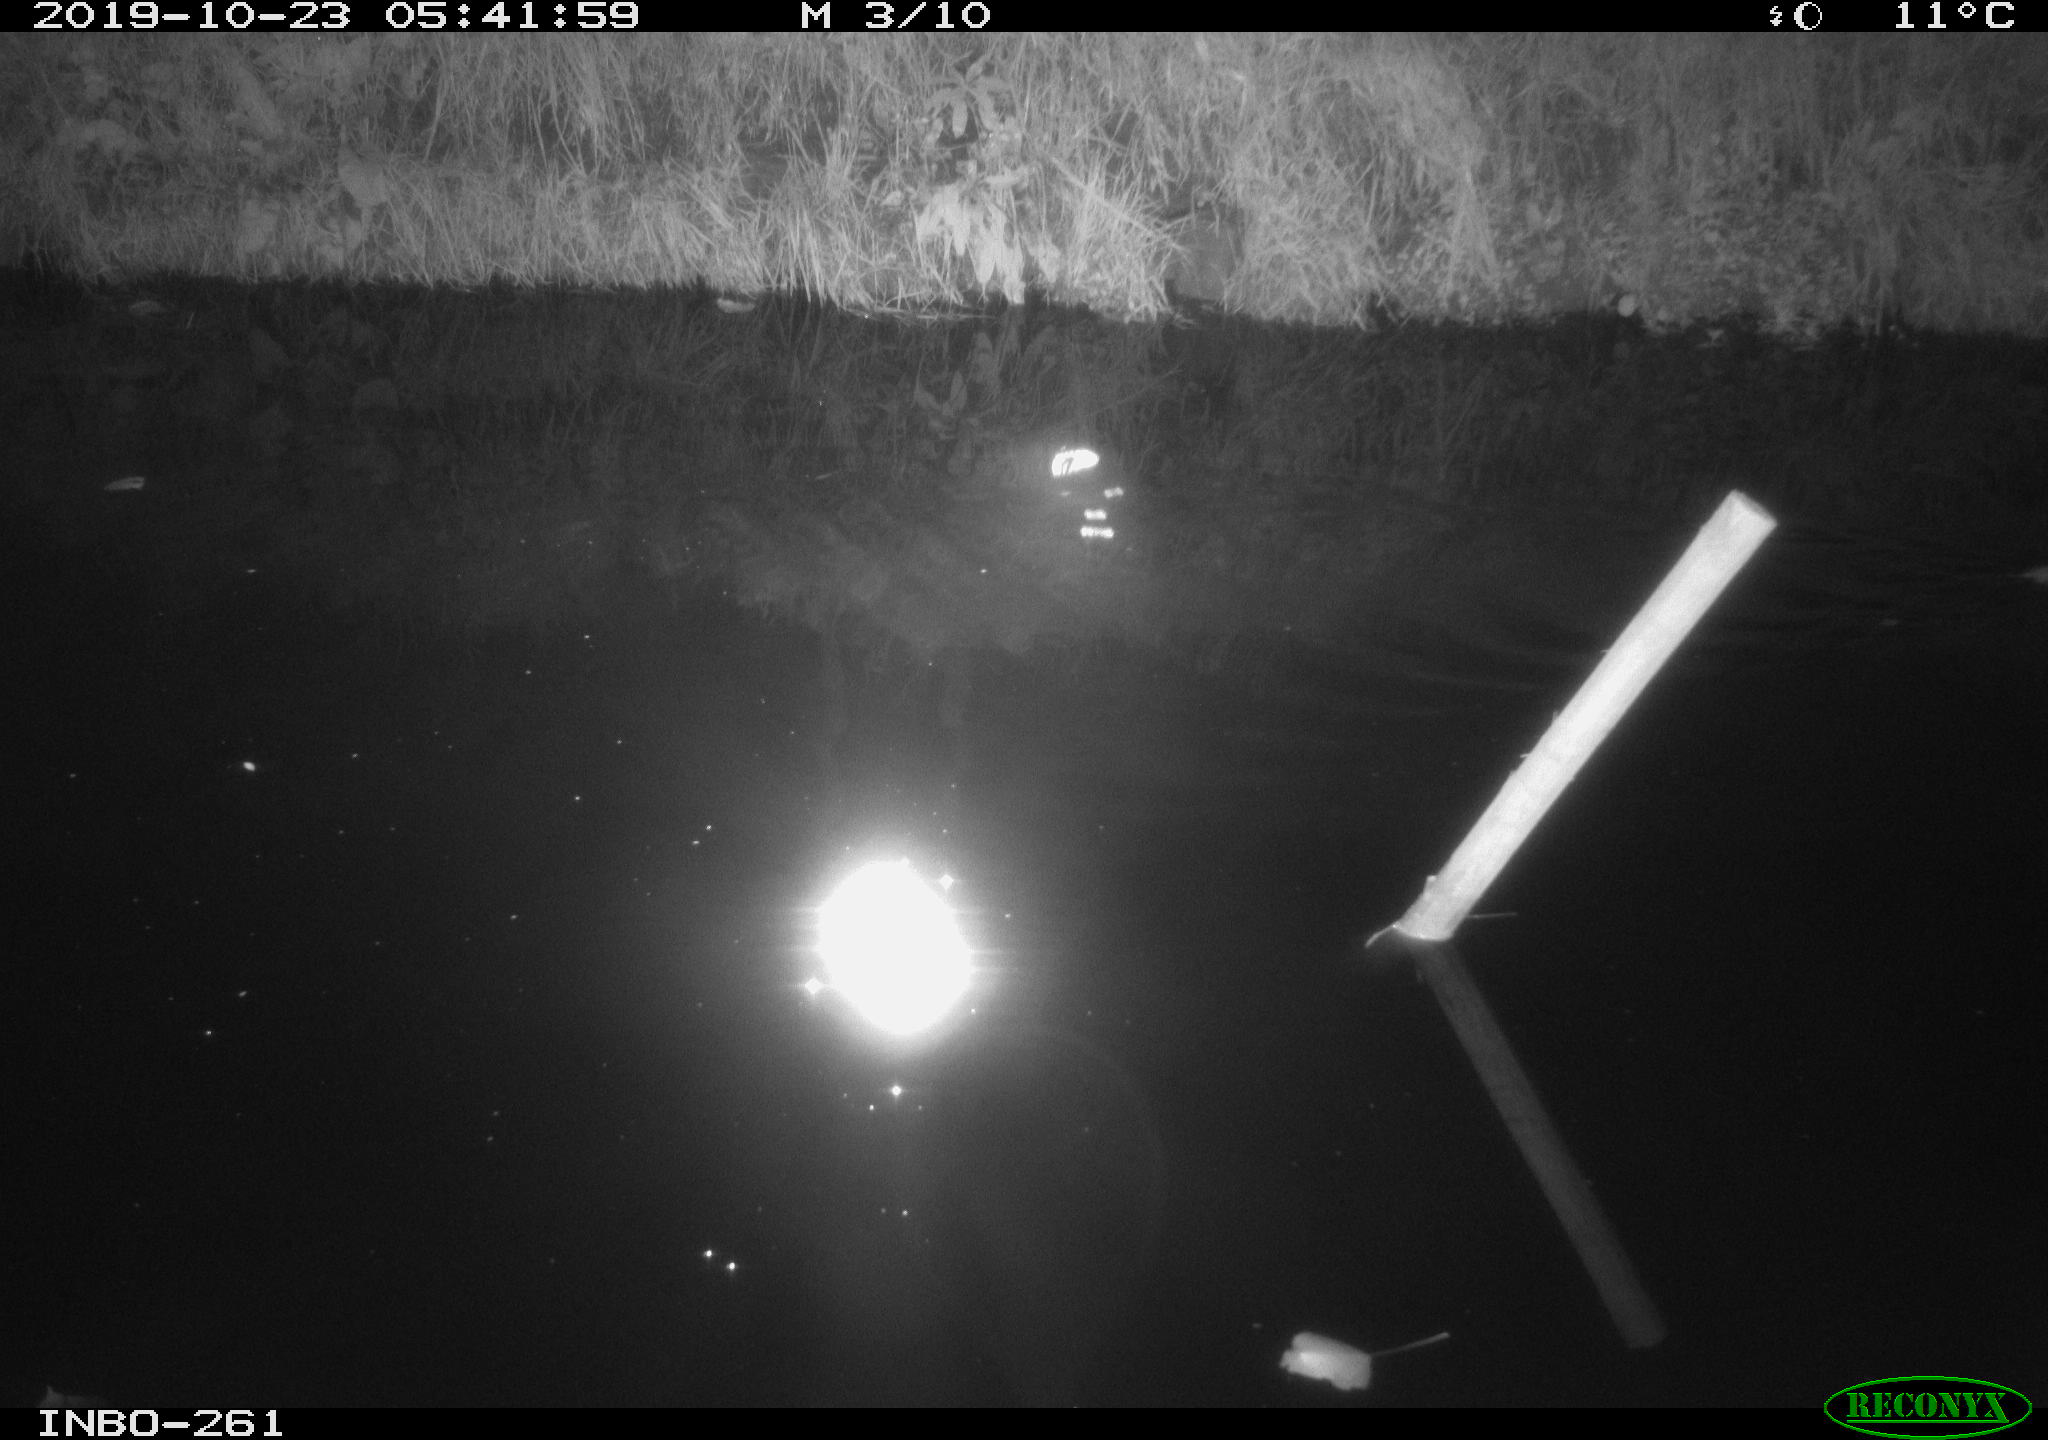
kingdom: Animalia
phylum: Chordata
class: Mammalia
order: Rodentia
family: Muridae
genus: Rattus
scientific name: Rattus norvegicus
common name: Brown rat
